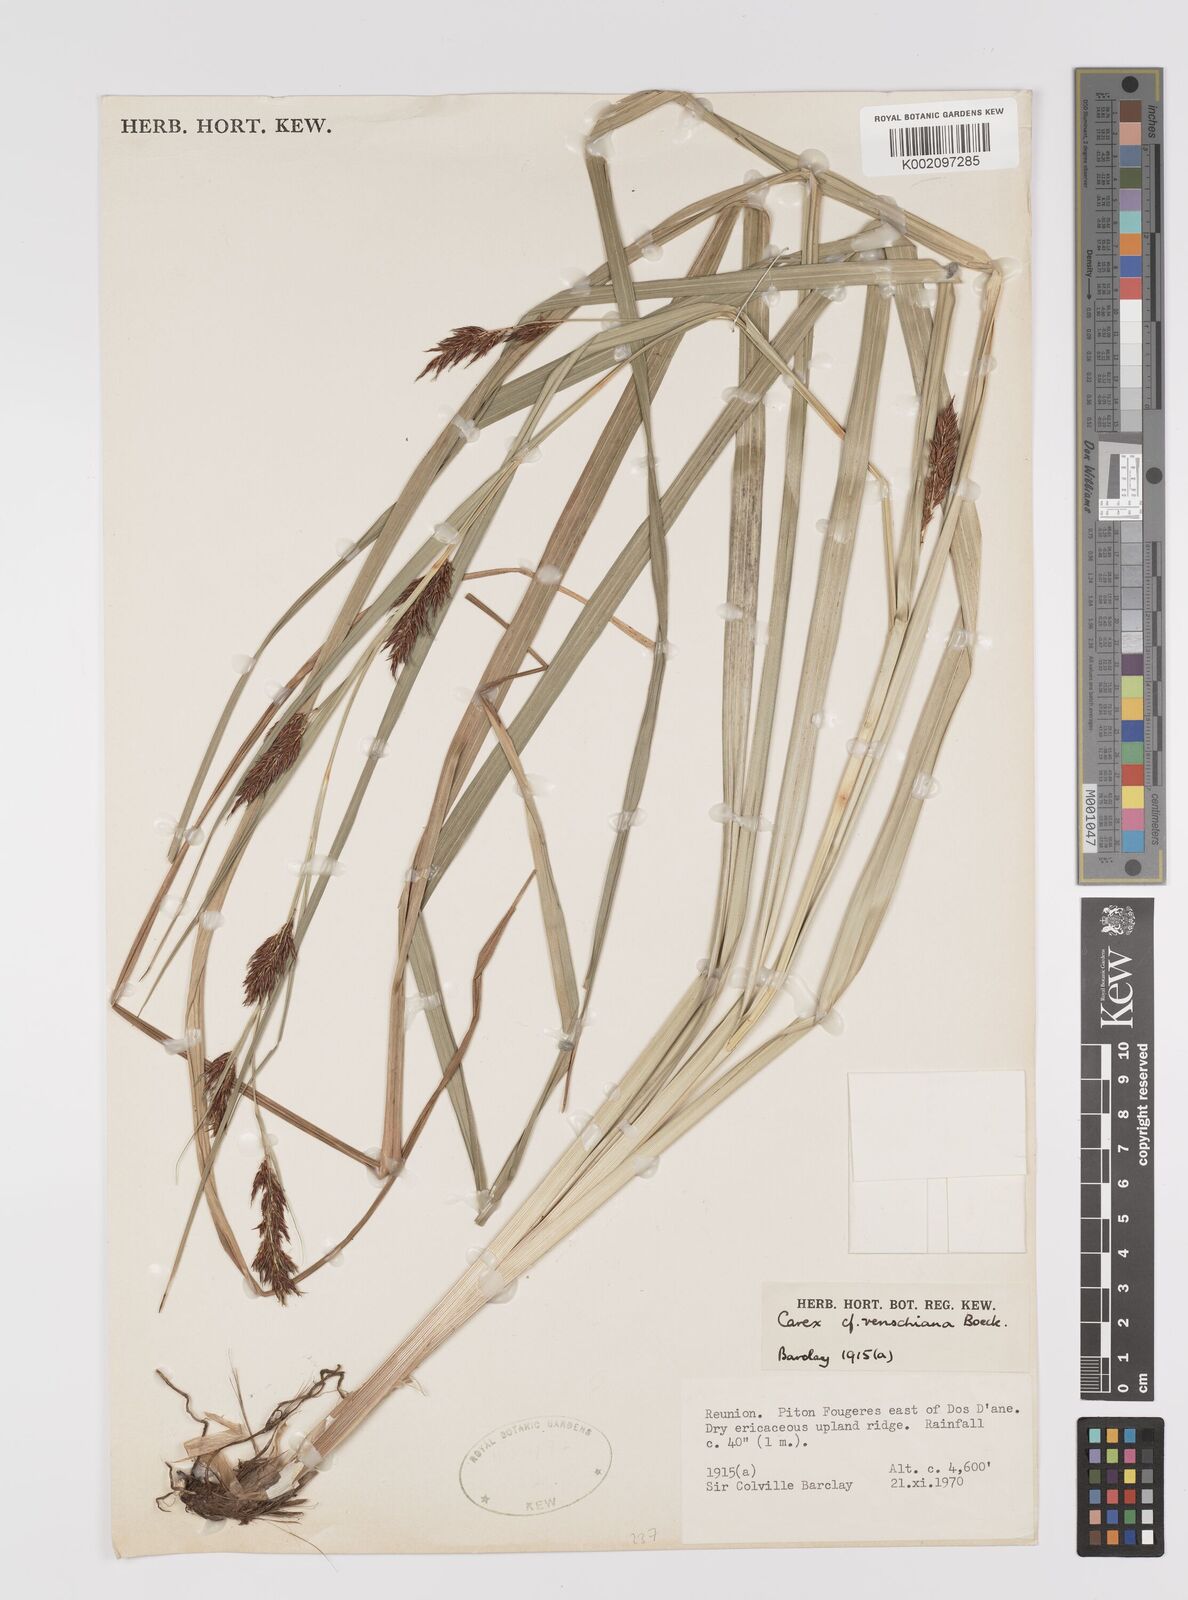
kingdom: Plantae
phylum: Tracheophyta
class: Liliopsida
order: Poales
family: Cyperaceae
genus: Carex
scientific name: Carex renschiana
